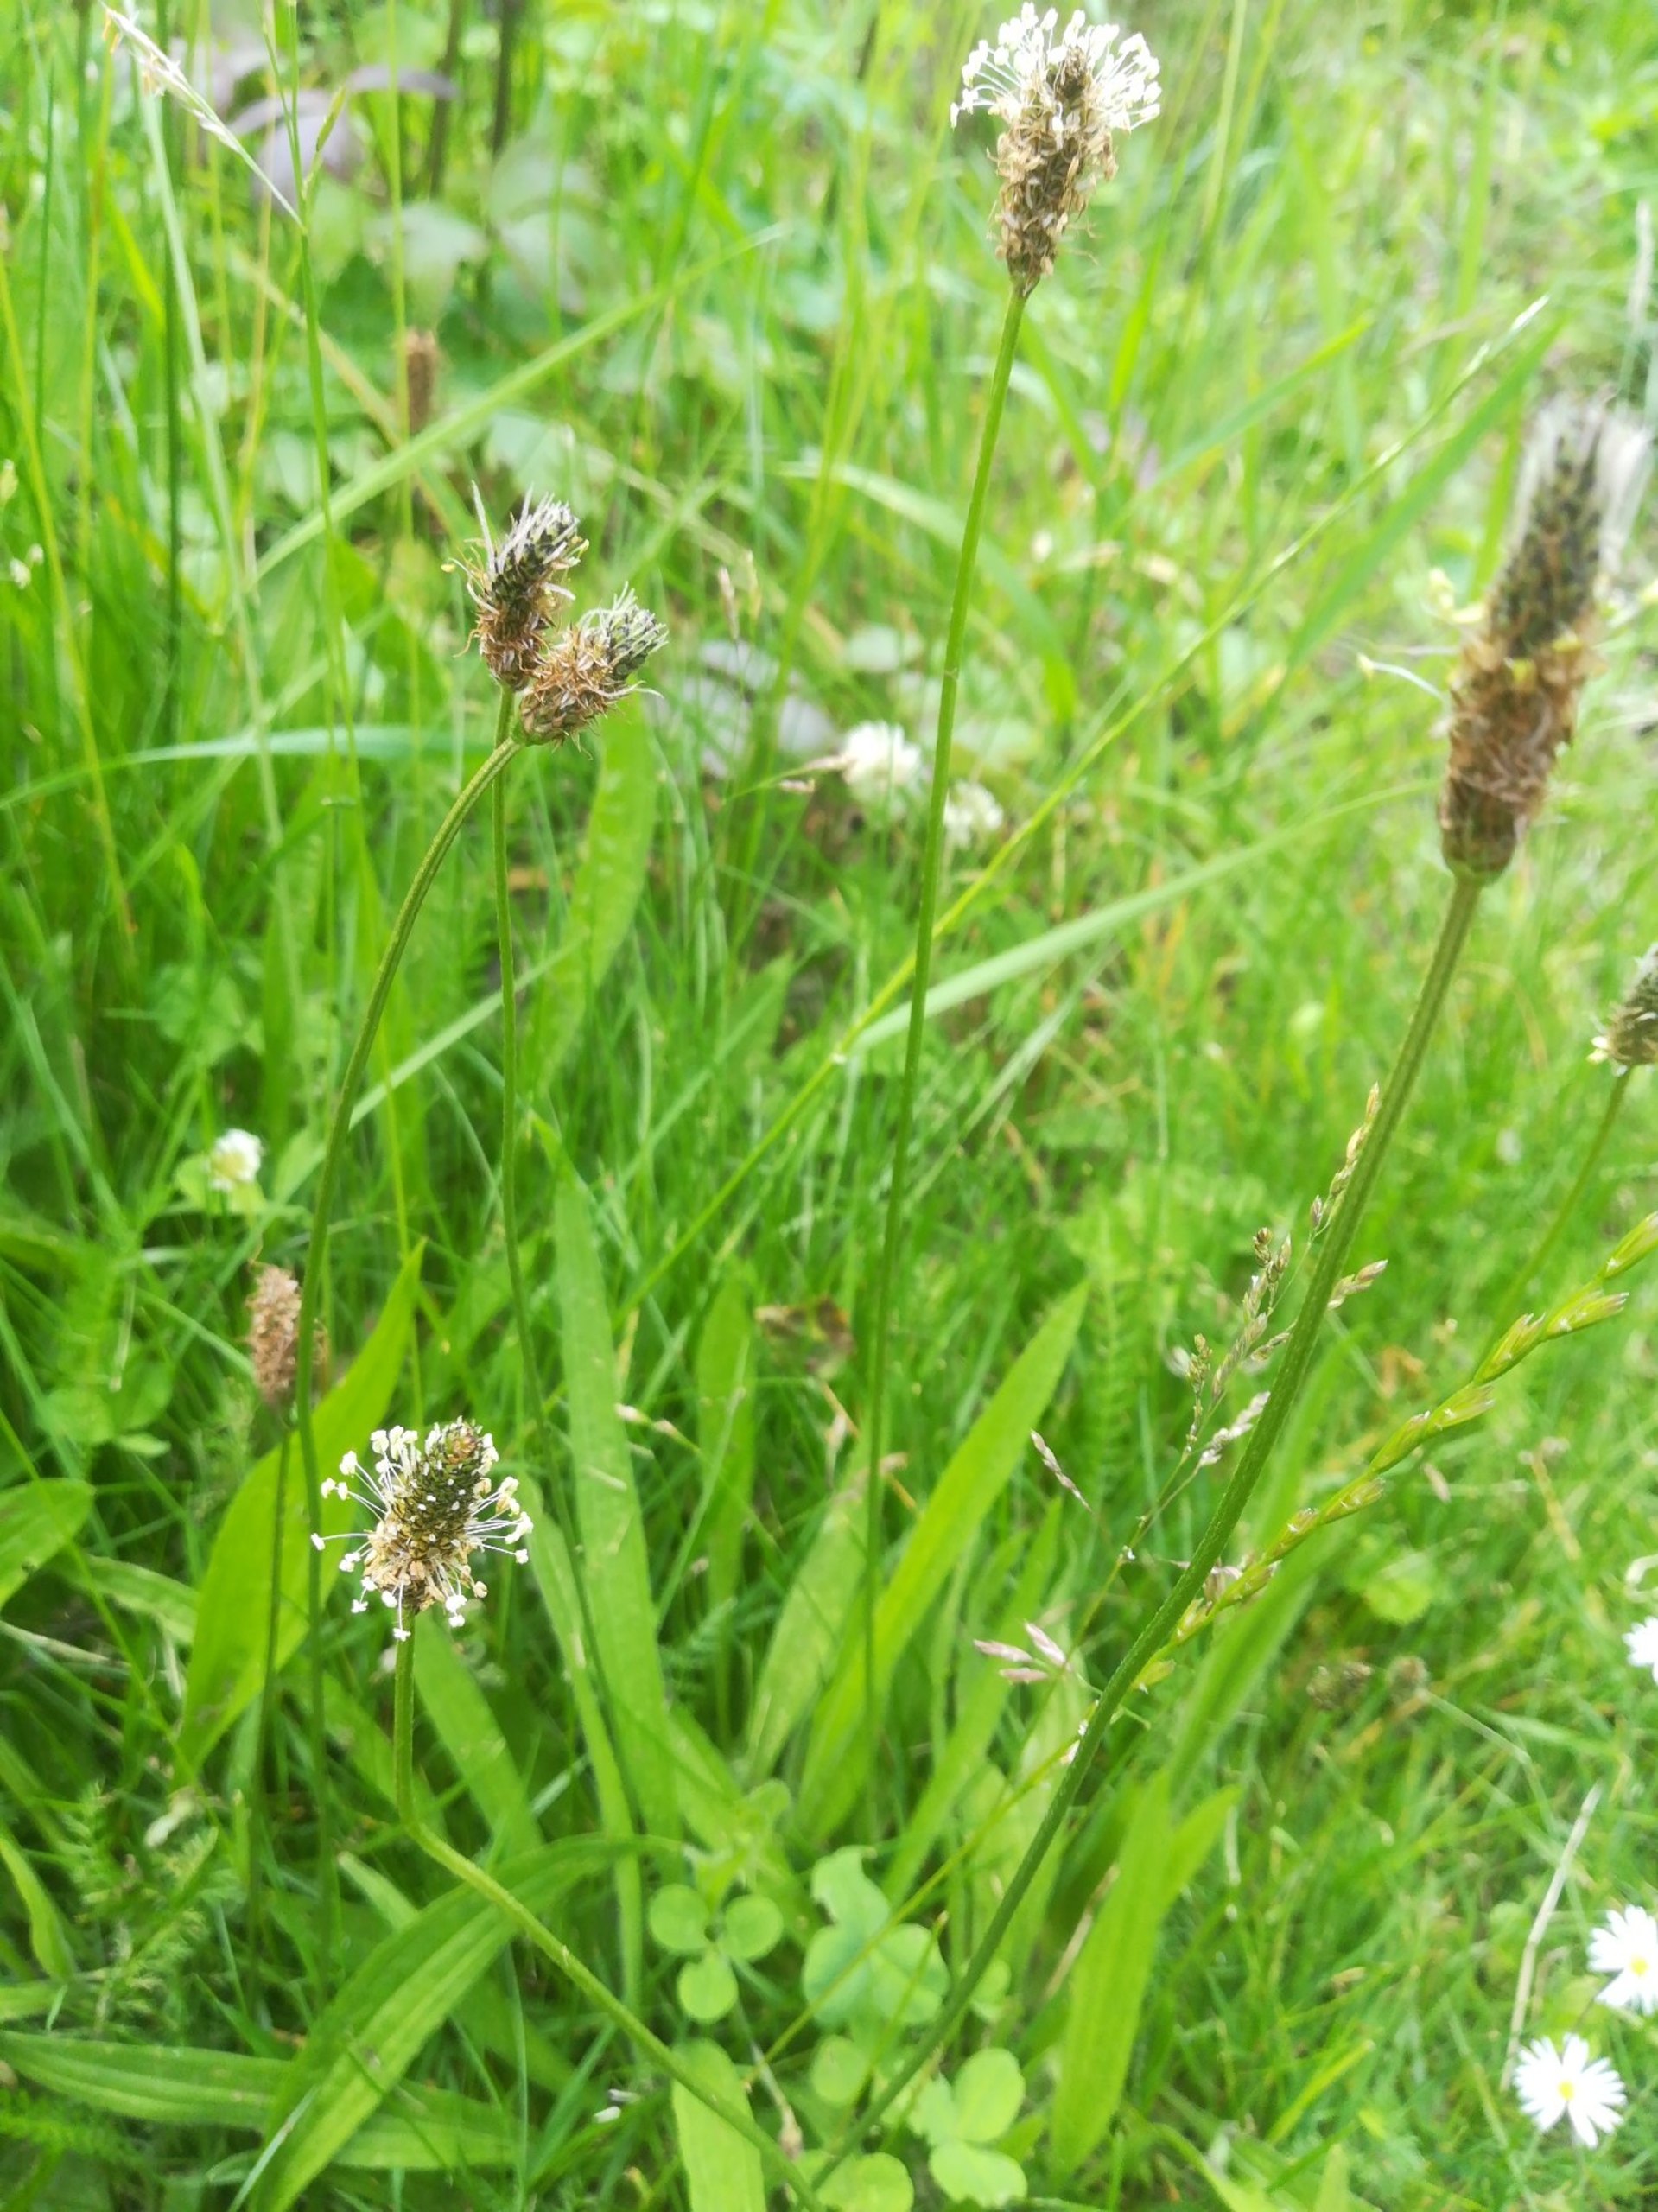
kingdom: Plantae
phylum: Tracheophyta
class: Magnoliopsida
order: Lamiales
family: Plantaginaceae
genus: Plantago
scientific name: Plantago lanceolata
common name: Lancet-vejbred
